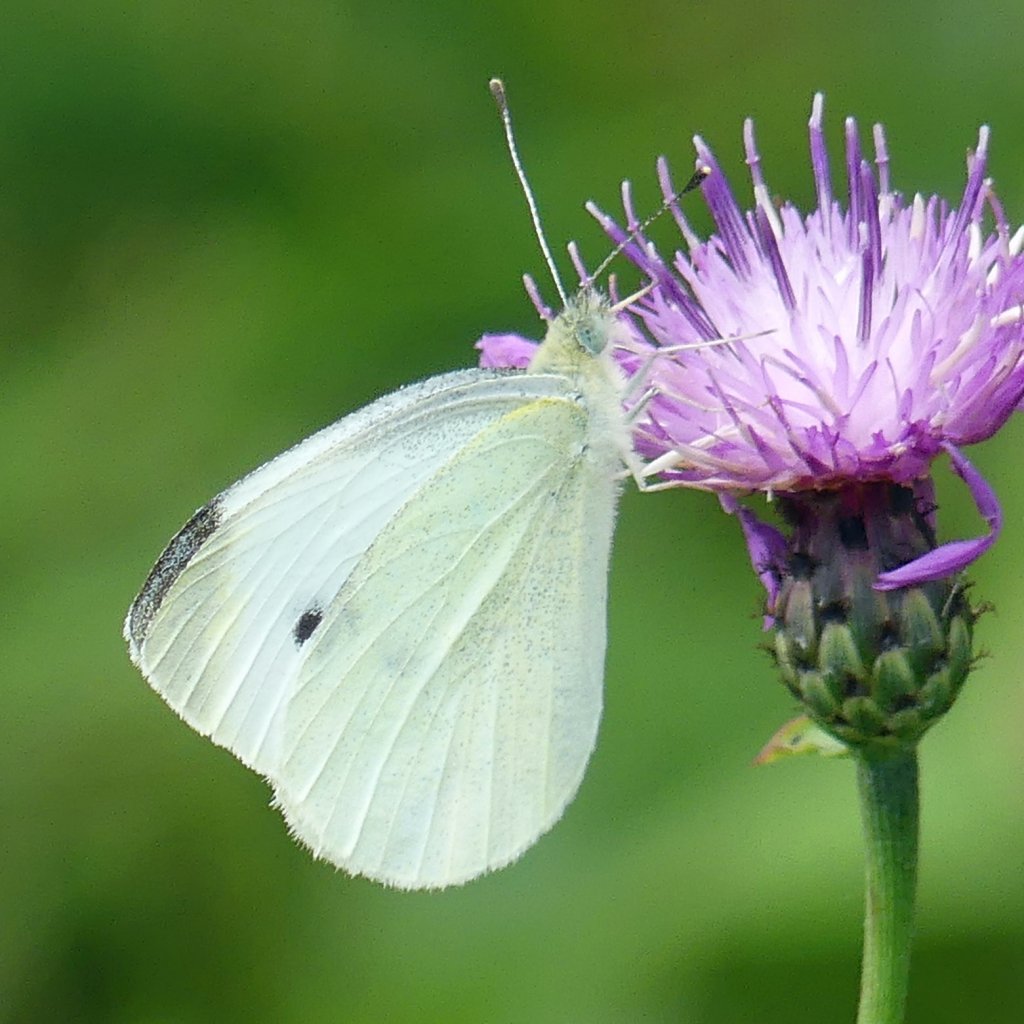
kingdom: Animalia
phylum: Arthropoda
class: Insecta
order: Lepidoptera
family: Pieridae
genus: Pieris
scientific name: Pieris rapae
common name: Cabbage White
